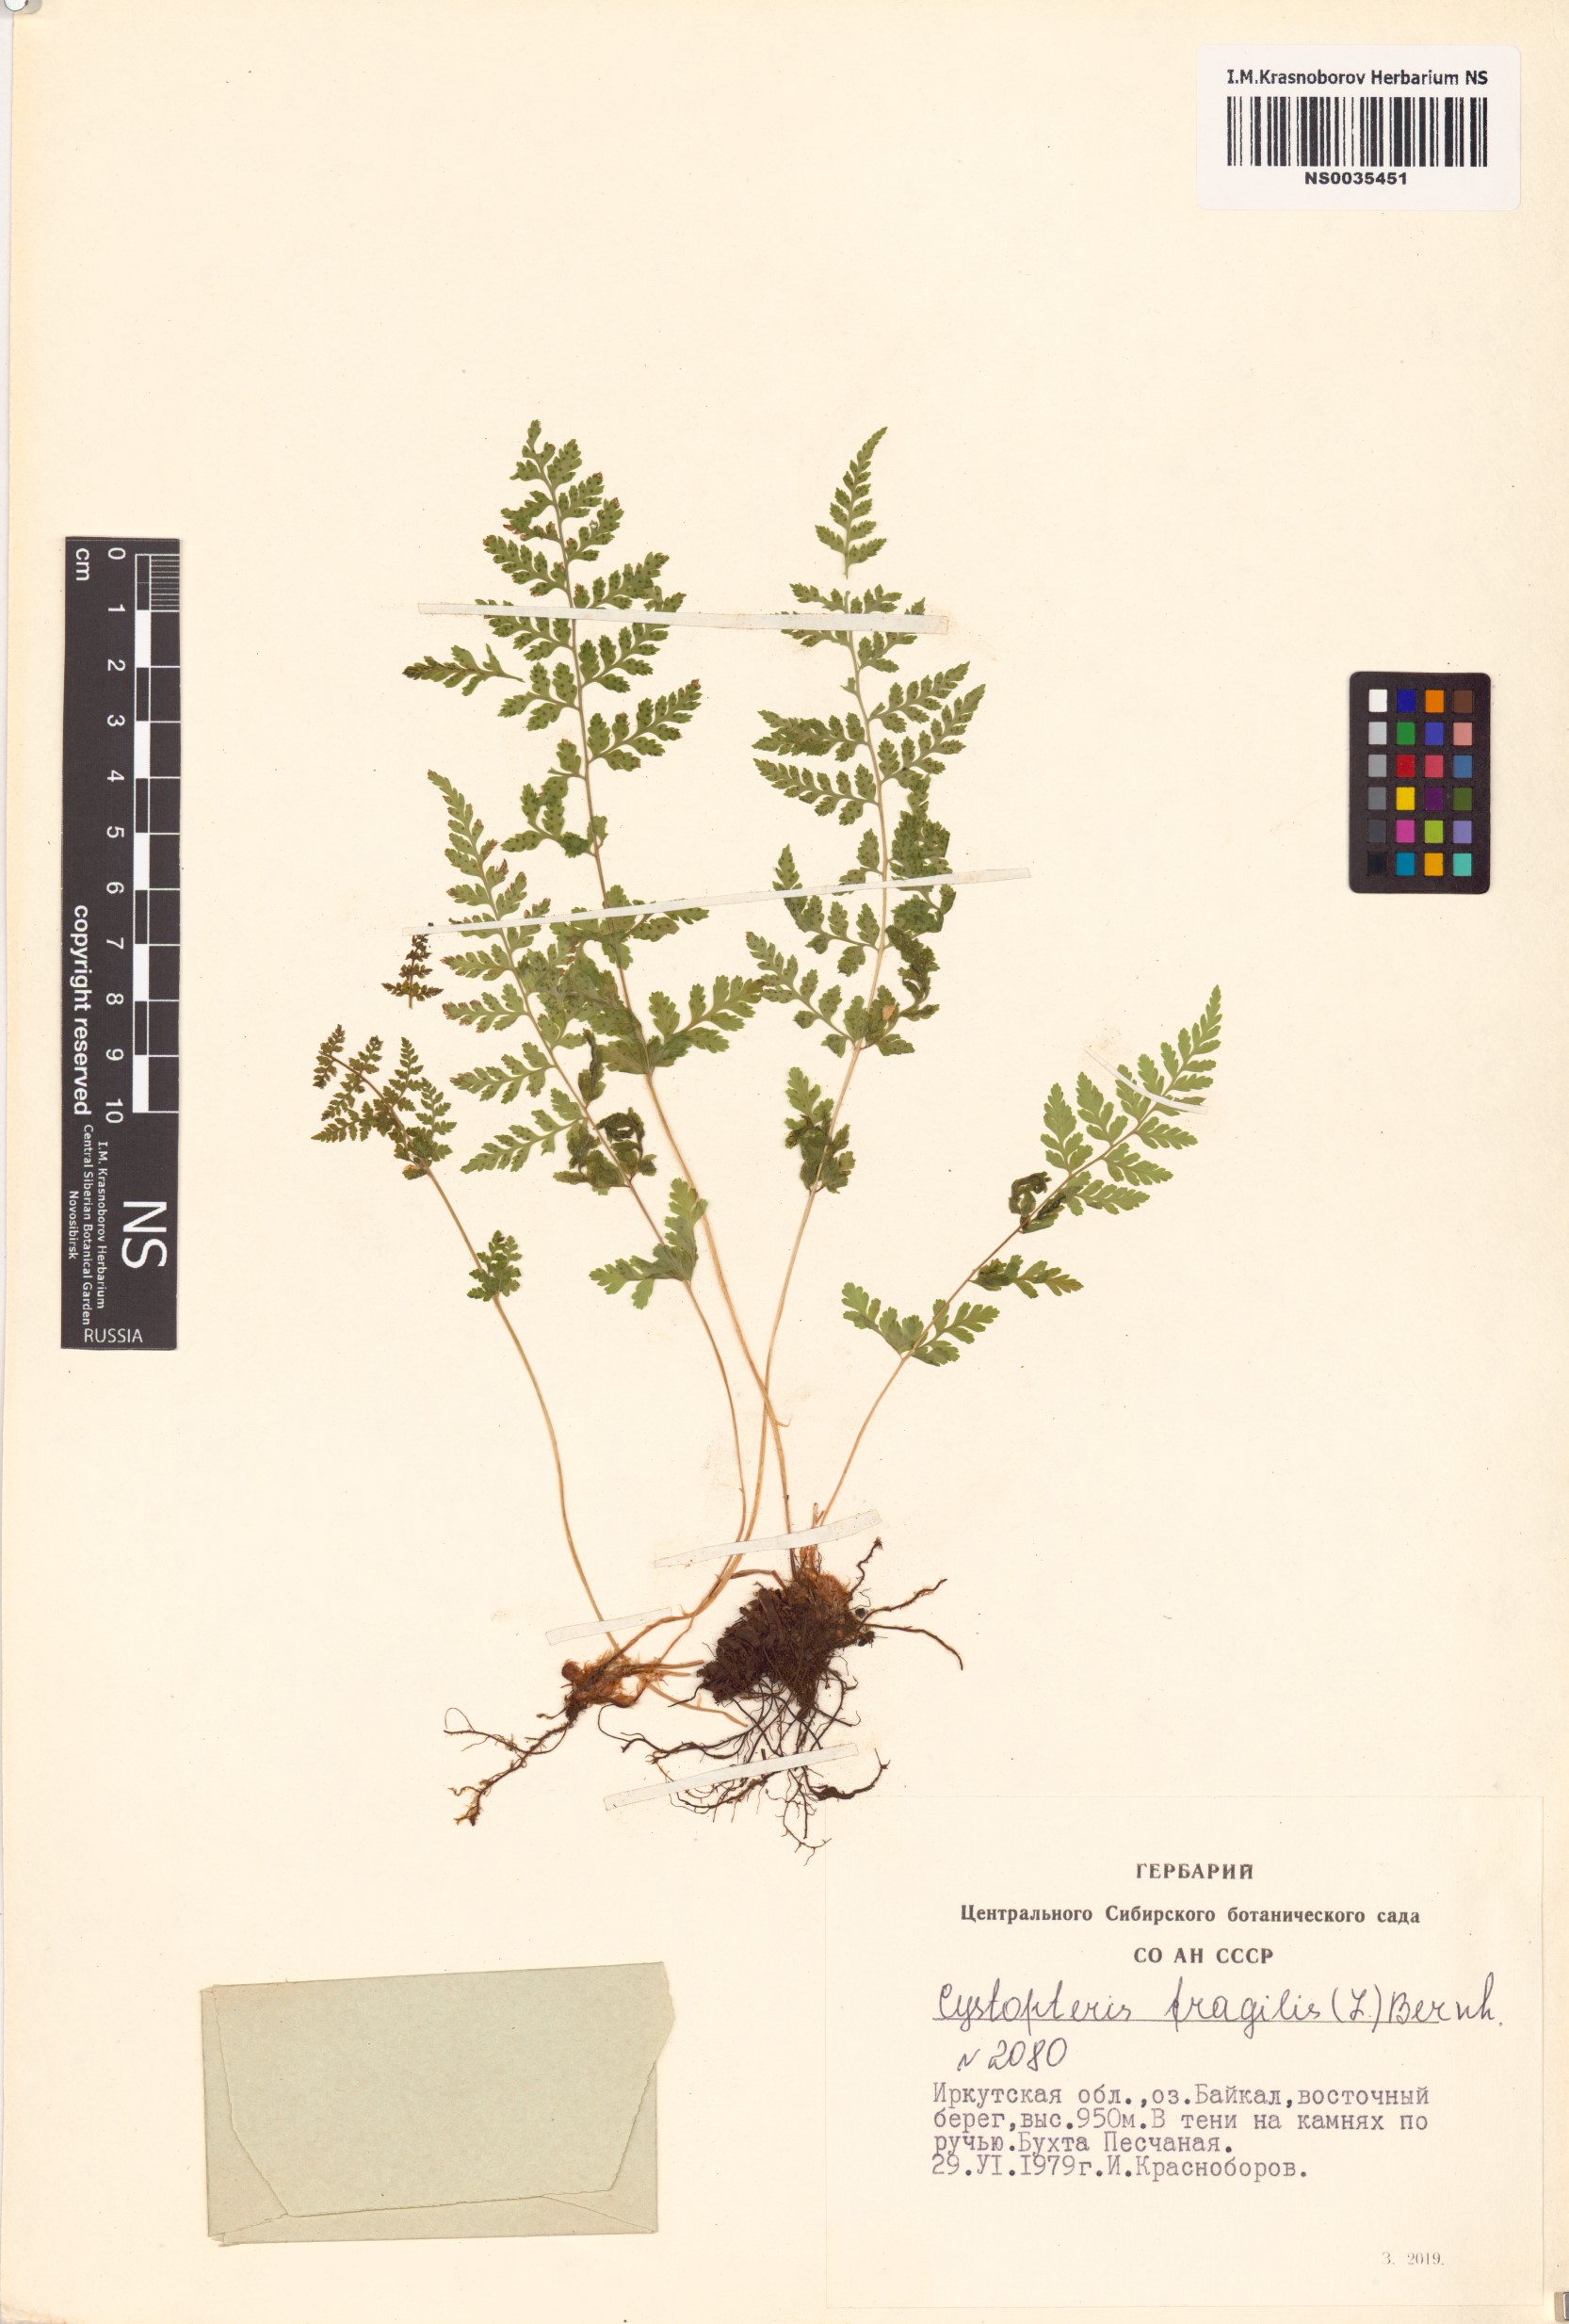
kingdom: Plantae
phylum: Tracheophyta
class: Polypodiopsida
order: Polypodiales
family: Cystopteridaceae
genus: Cystopteris
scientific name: Cystopteris fragilis
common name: Brittle bladder fern
